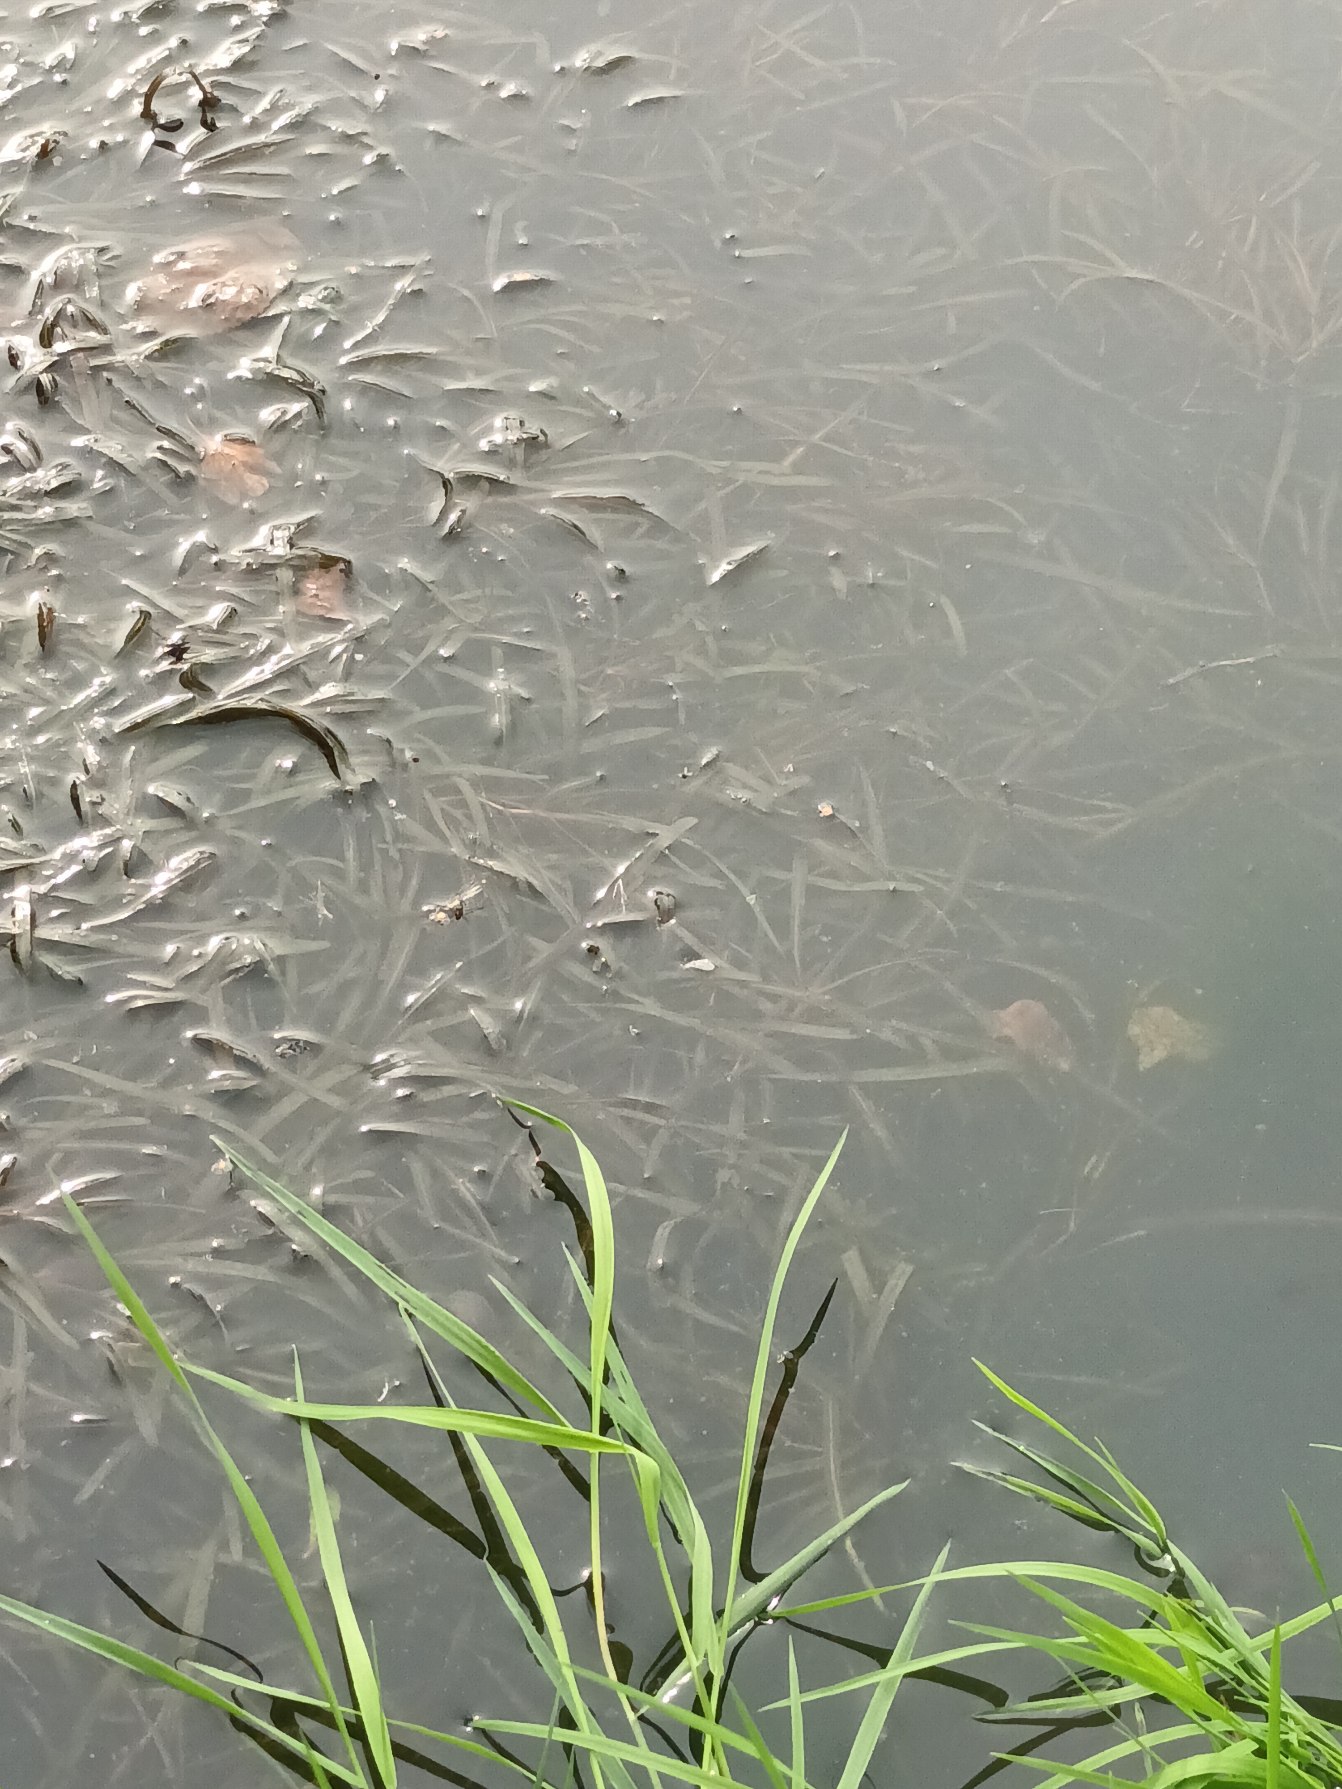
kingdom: Plantae
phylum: Tracheophyta
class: Liliopsida
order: Alismatales
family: Potamogetonaceae
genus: Potamogeton
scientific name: Potamogeton obtusifolius
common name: Butbladet vandaks
